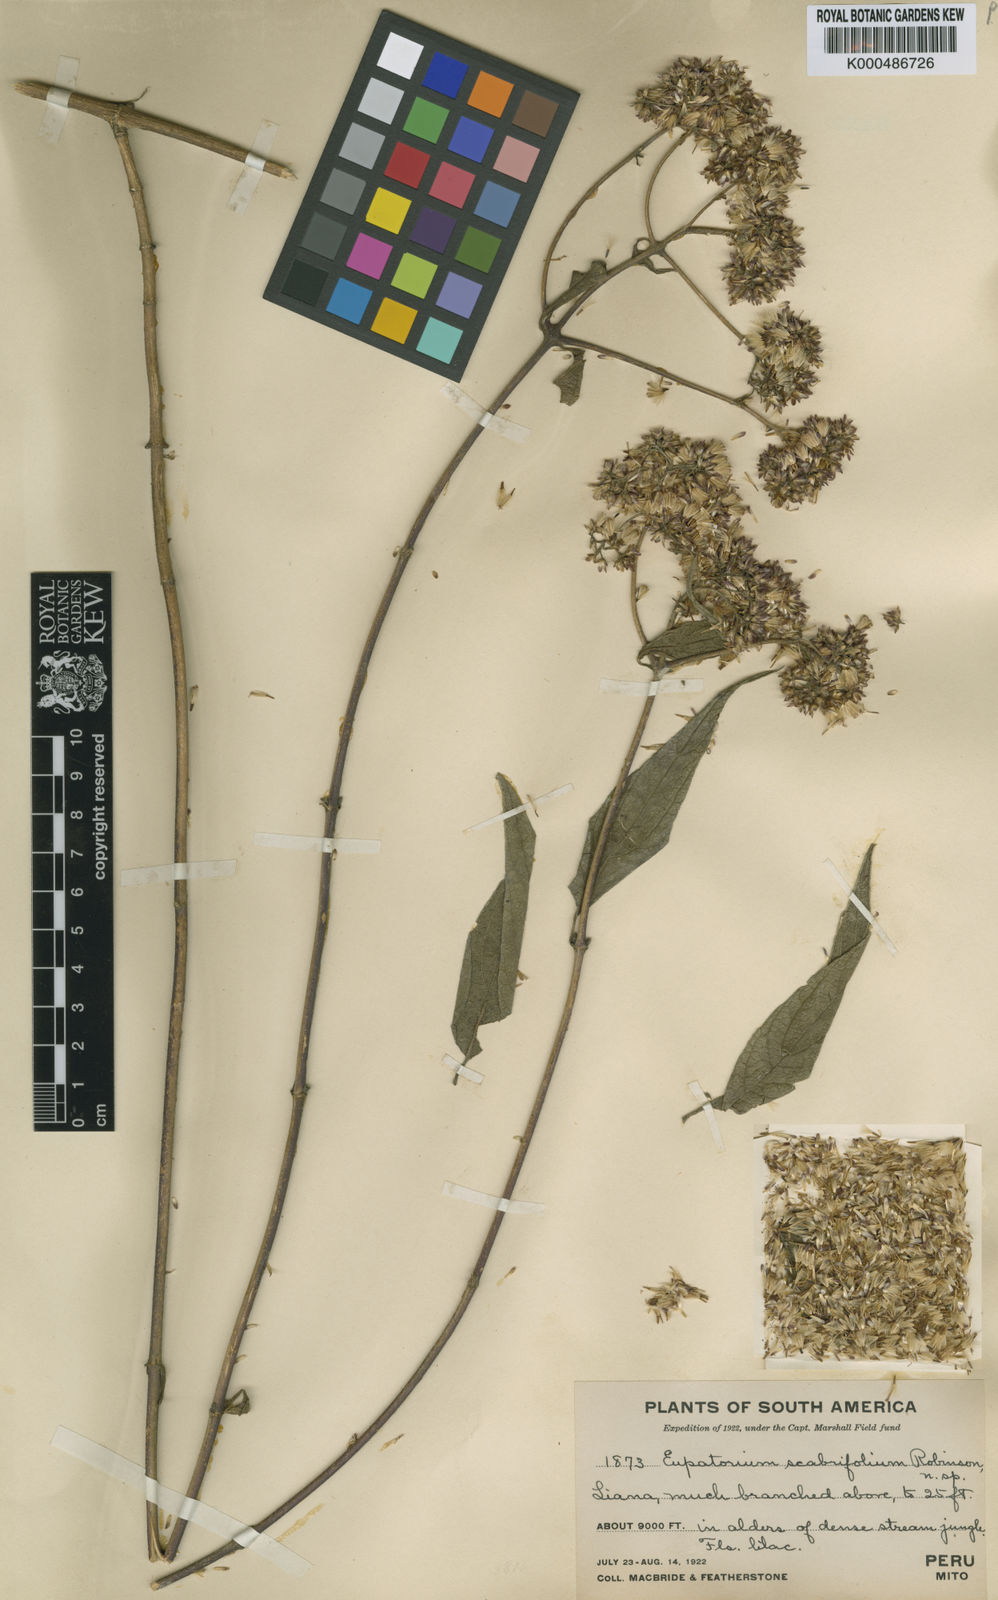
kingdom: Plantae
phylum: Tracheophyta
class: Magnoliopsida
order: Asterales
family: Asteraceae
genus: Asplundianthus
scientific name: Asplundianthus scabrifolius
